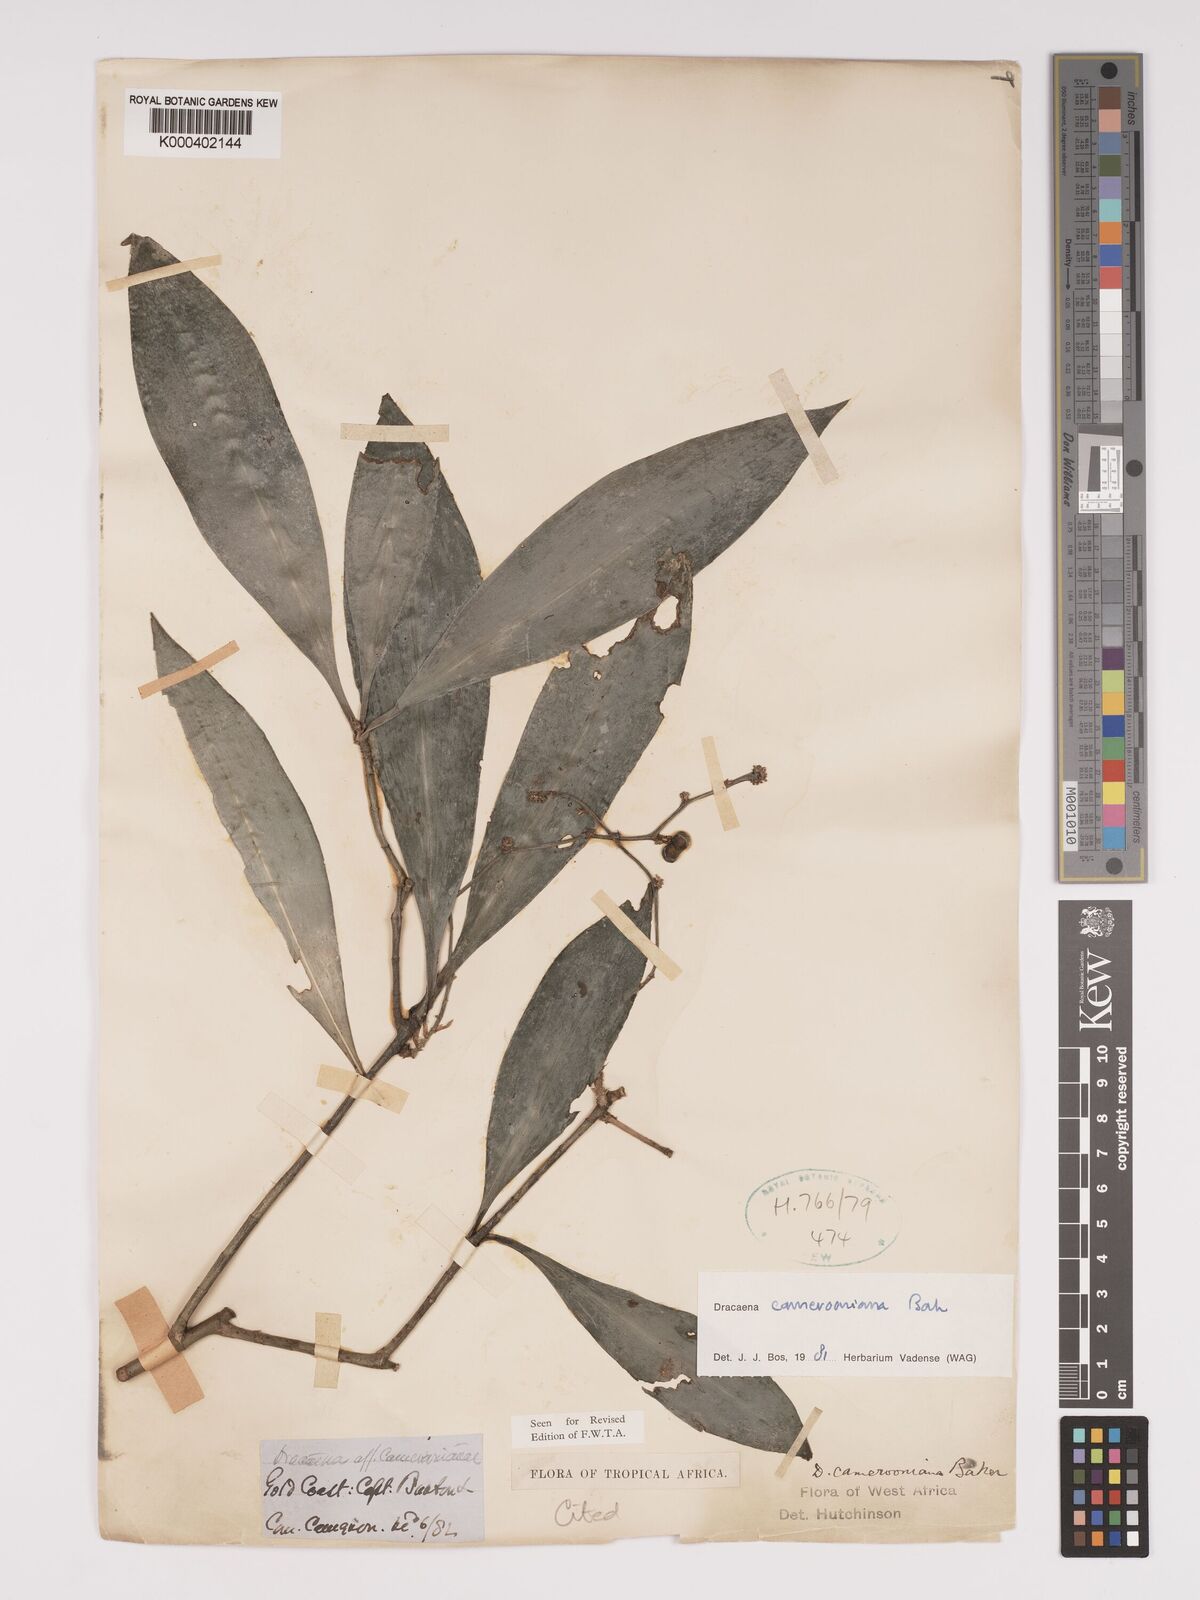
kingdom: Plantae
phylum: Tracheophyta
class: Liliopsida
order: Asparagales
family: Asparagaceae
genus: Dracaena
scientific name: Dracaena camerooniana
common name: Dragon tree
